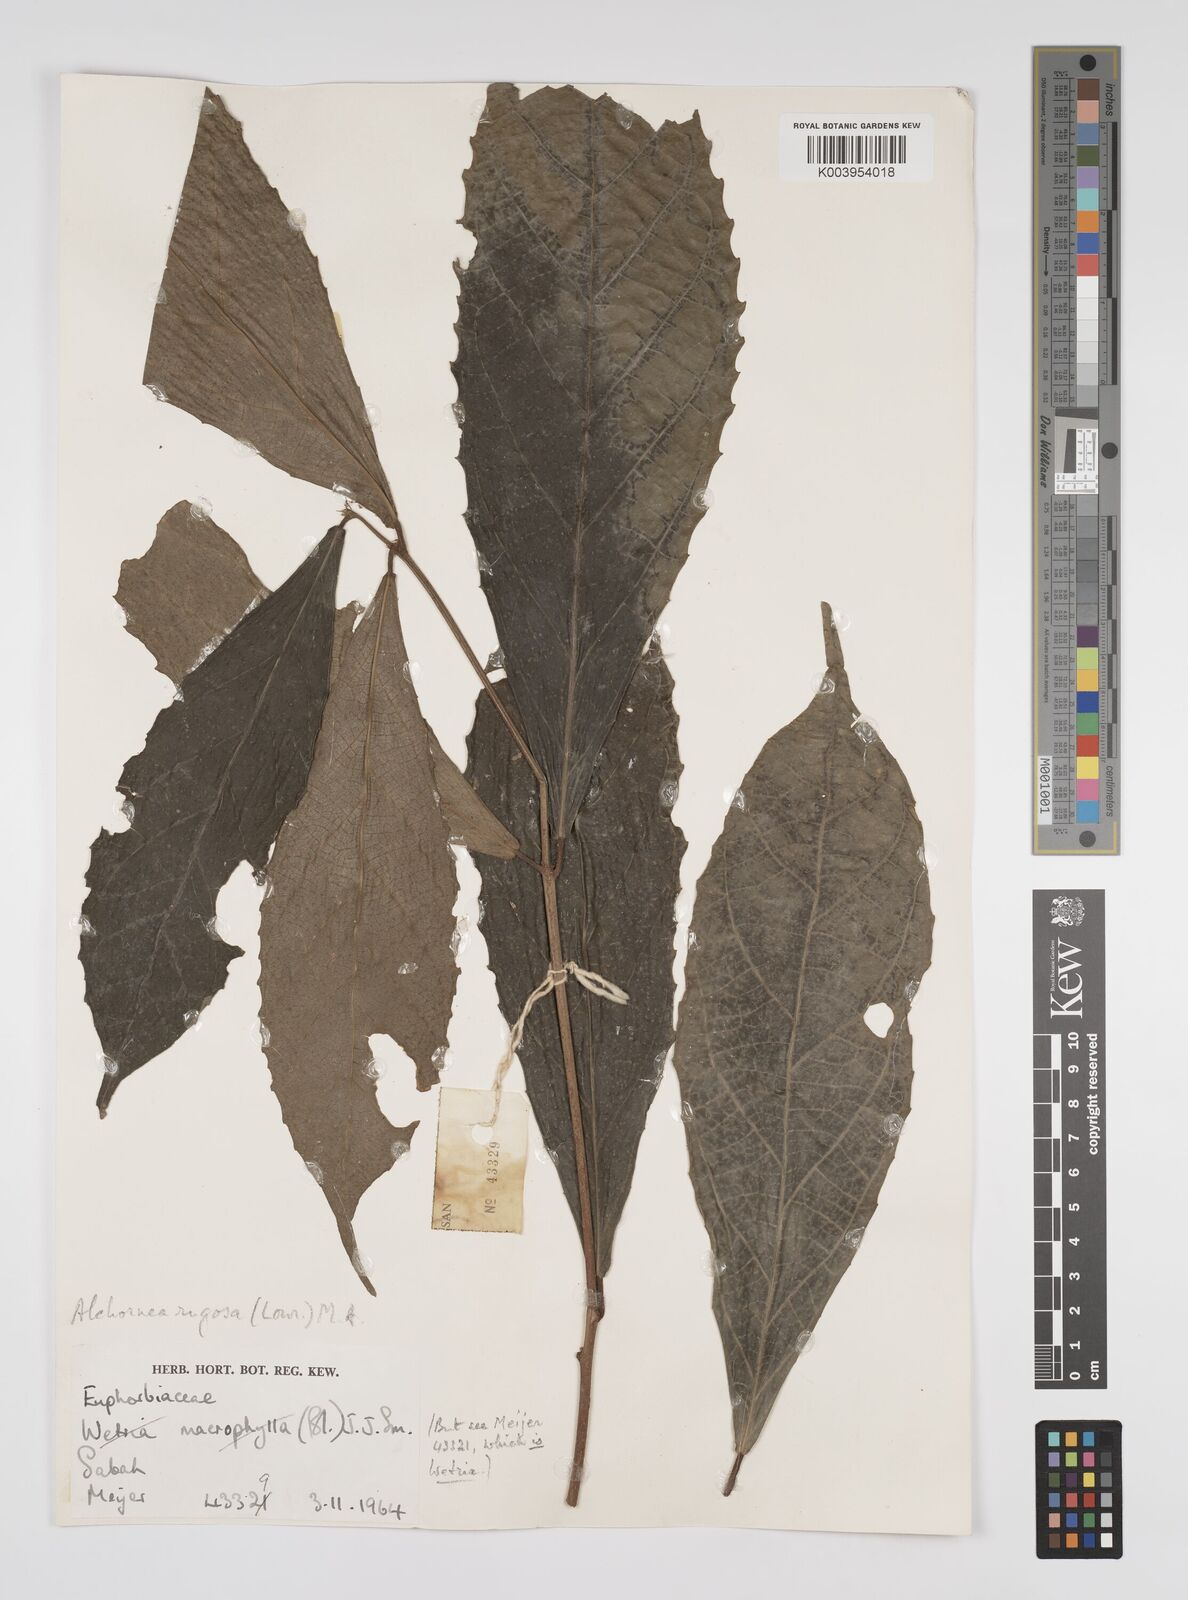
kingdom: Plantae
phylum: Tracheophyta
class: Magnoliopsida
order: Malpighiales
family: Euphorbiaceae
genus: Alchornea
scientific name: Alchornea rugosa
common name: Alchorntree
